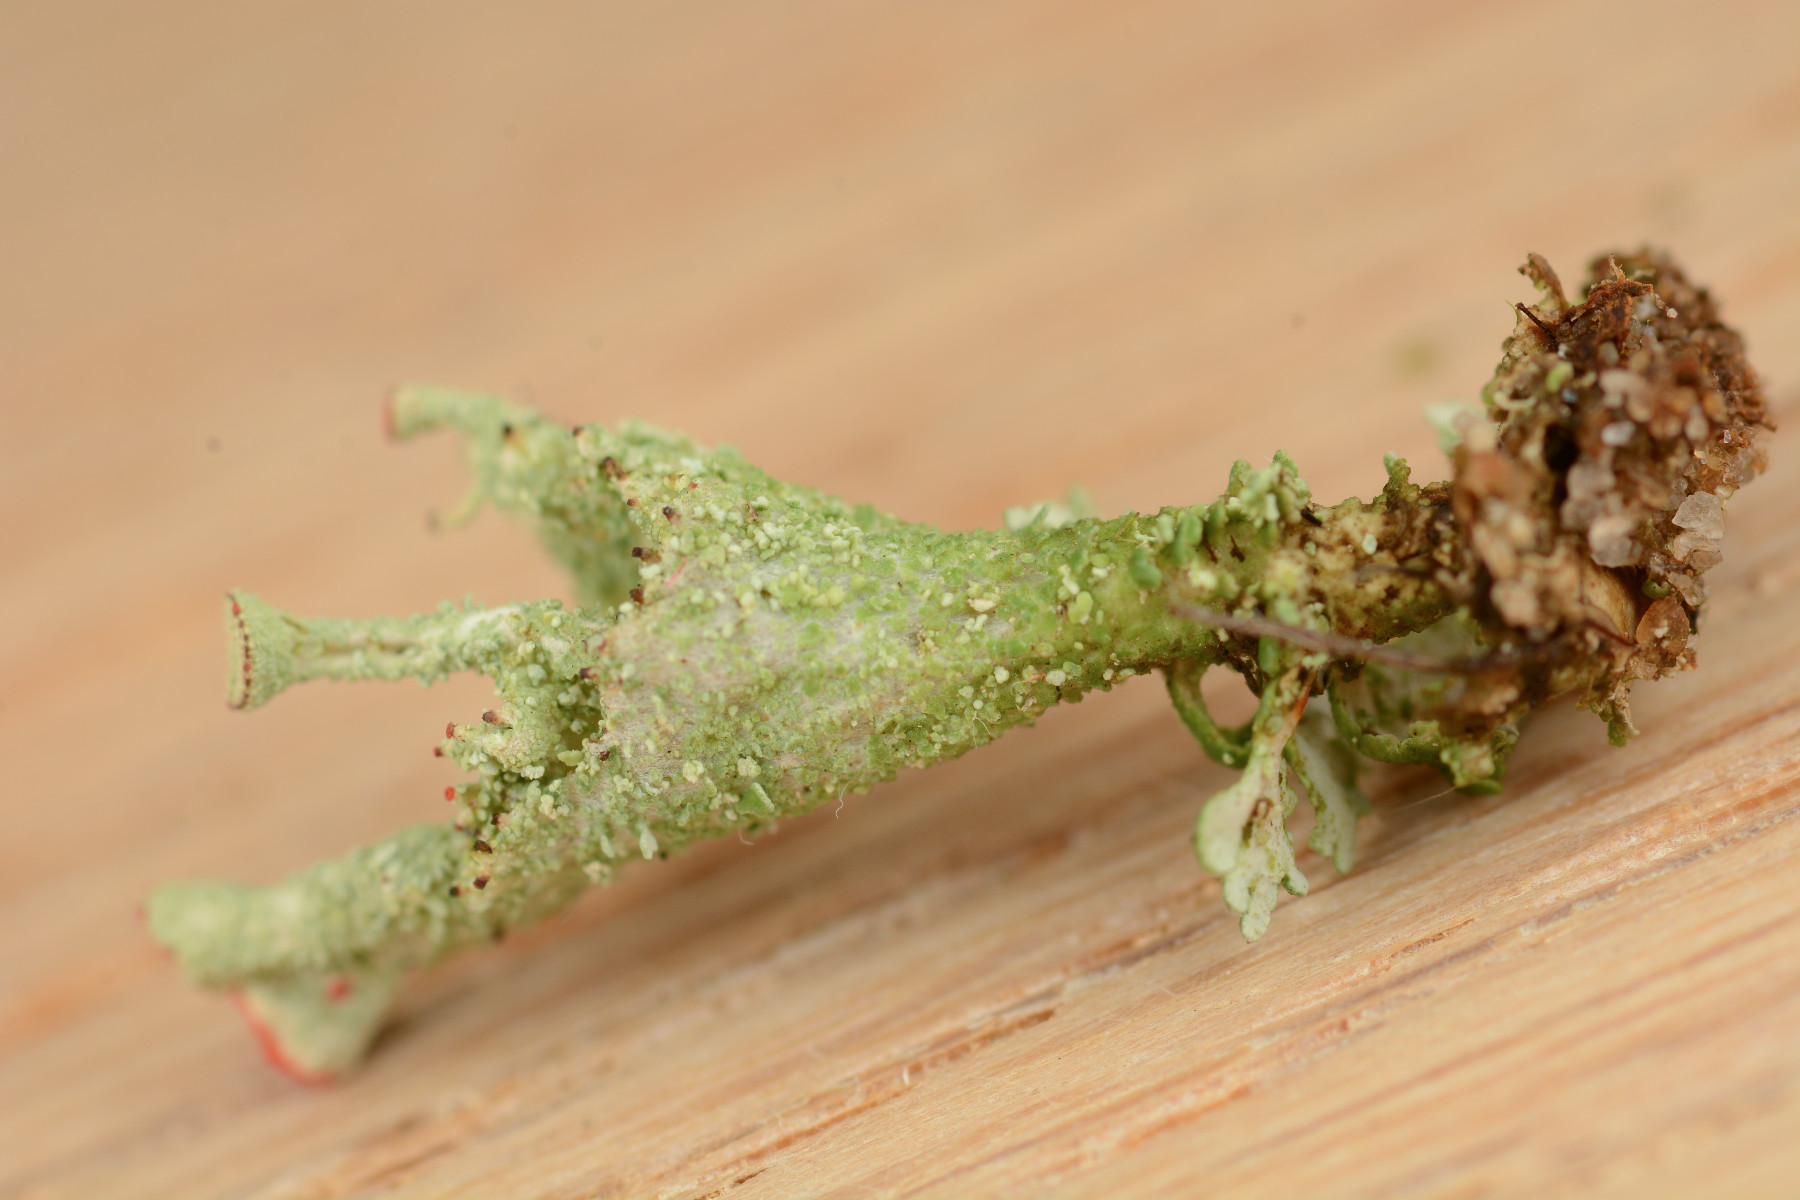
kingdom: Fungi
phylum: Ascomycota
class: Lecanoromycetes
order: Lecanorales
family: Cladoniaceae
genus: Cladonia
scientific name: Cladonia diversa
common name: rød bægerlav
